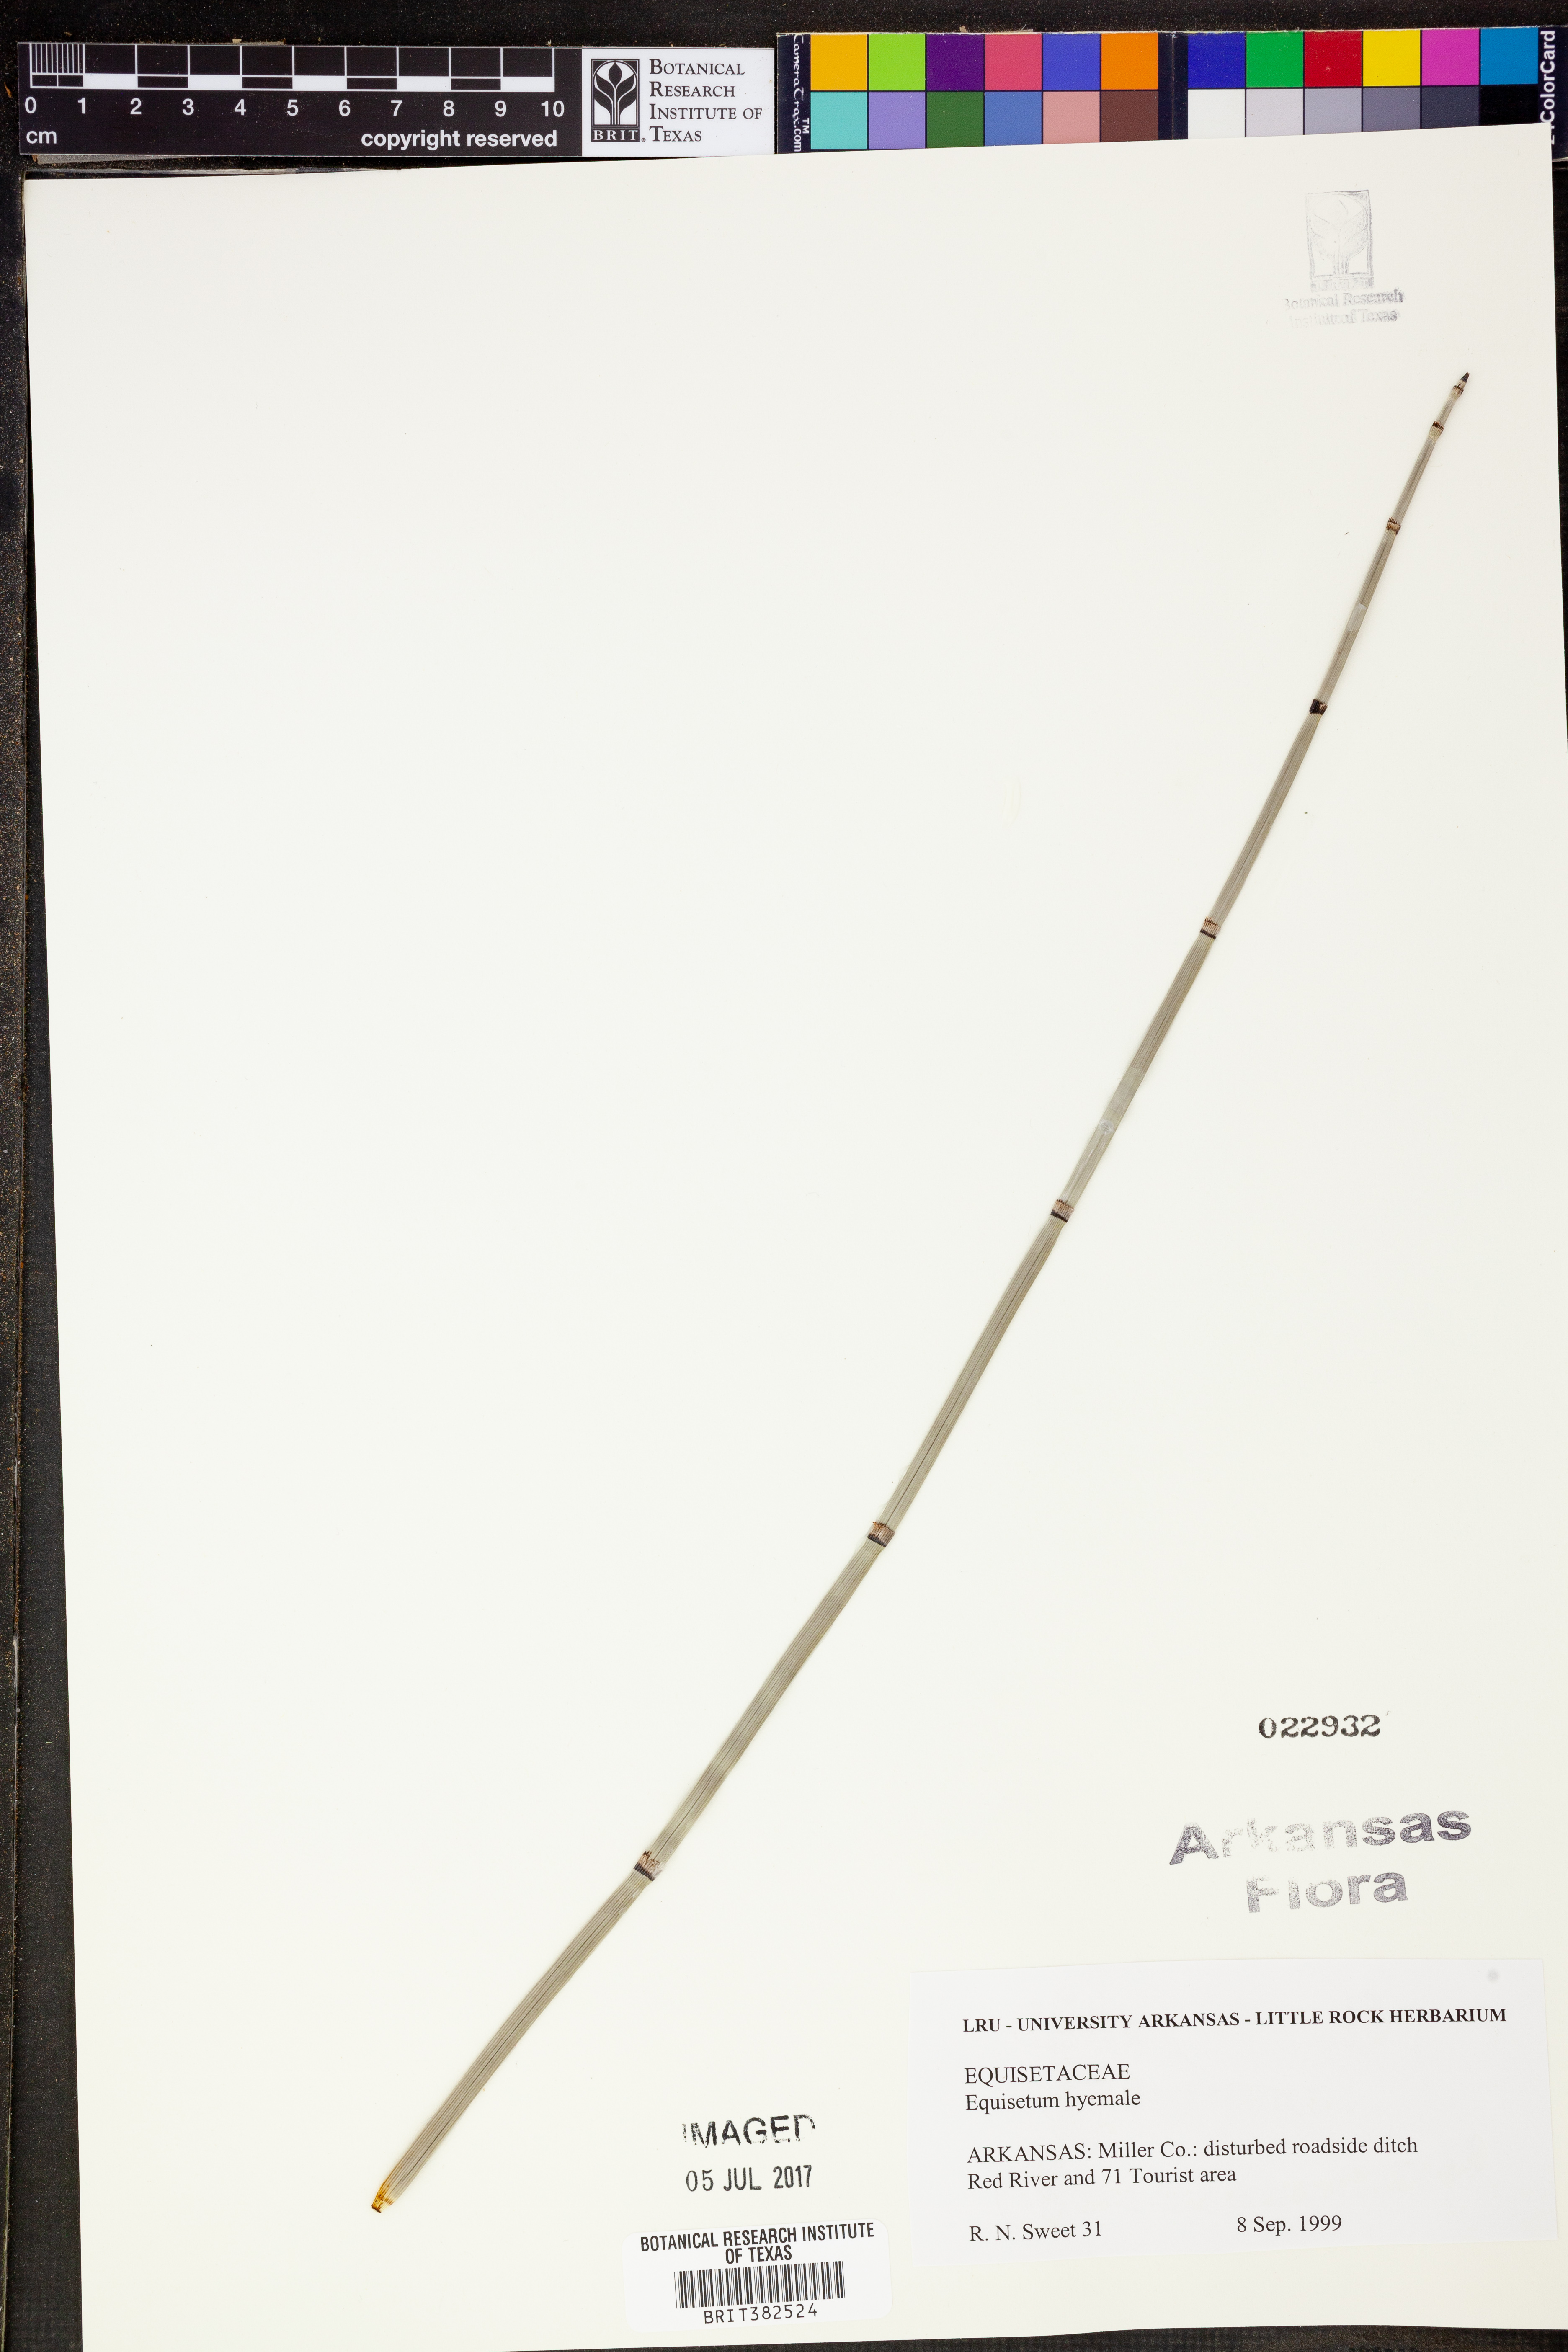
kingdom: Plantae
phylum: Tracheophyta
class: Polypodiopsida
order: Equisetales
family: Equisetaceae
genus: Equisetum
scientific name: Equisetum hyemale
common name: Rough horsetail
